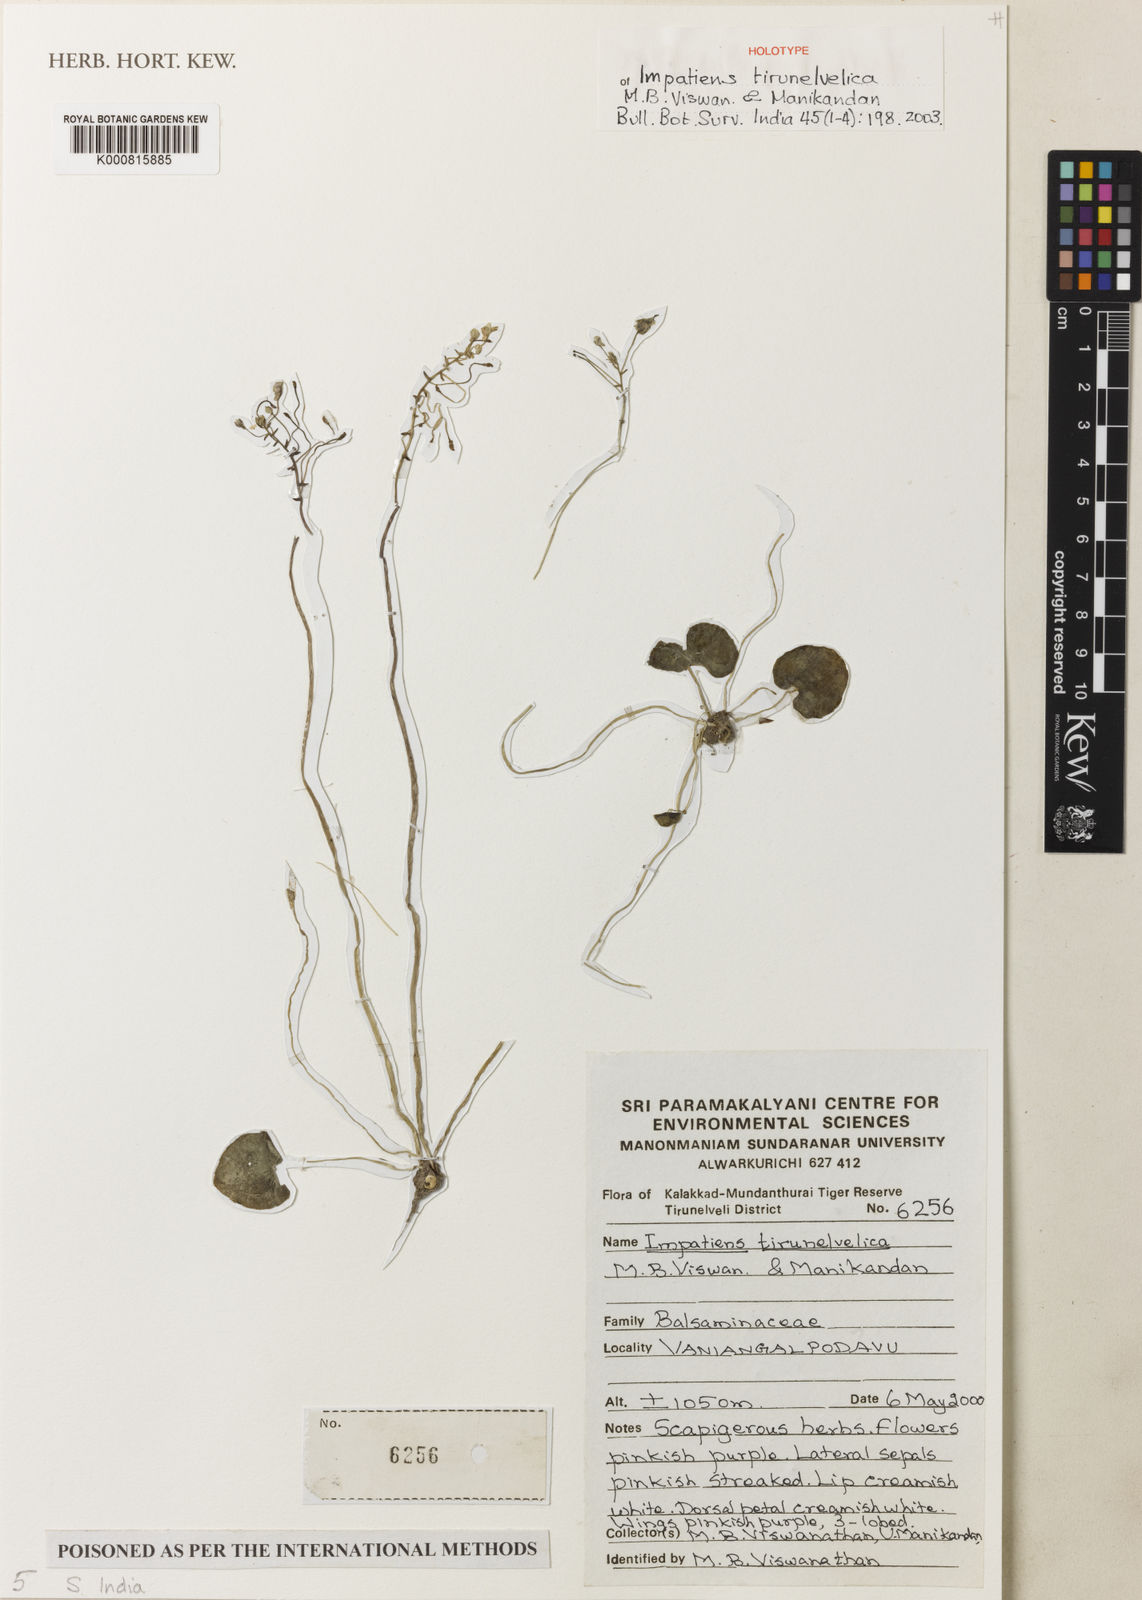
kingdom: Plantae
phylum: Tracheophyta
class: Magnoliopsida
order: Ericales
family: Balsaminaceae
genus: Impatiens
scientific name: Impatiens modesta
